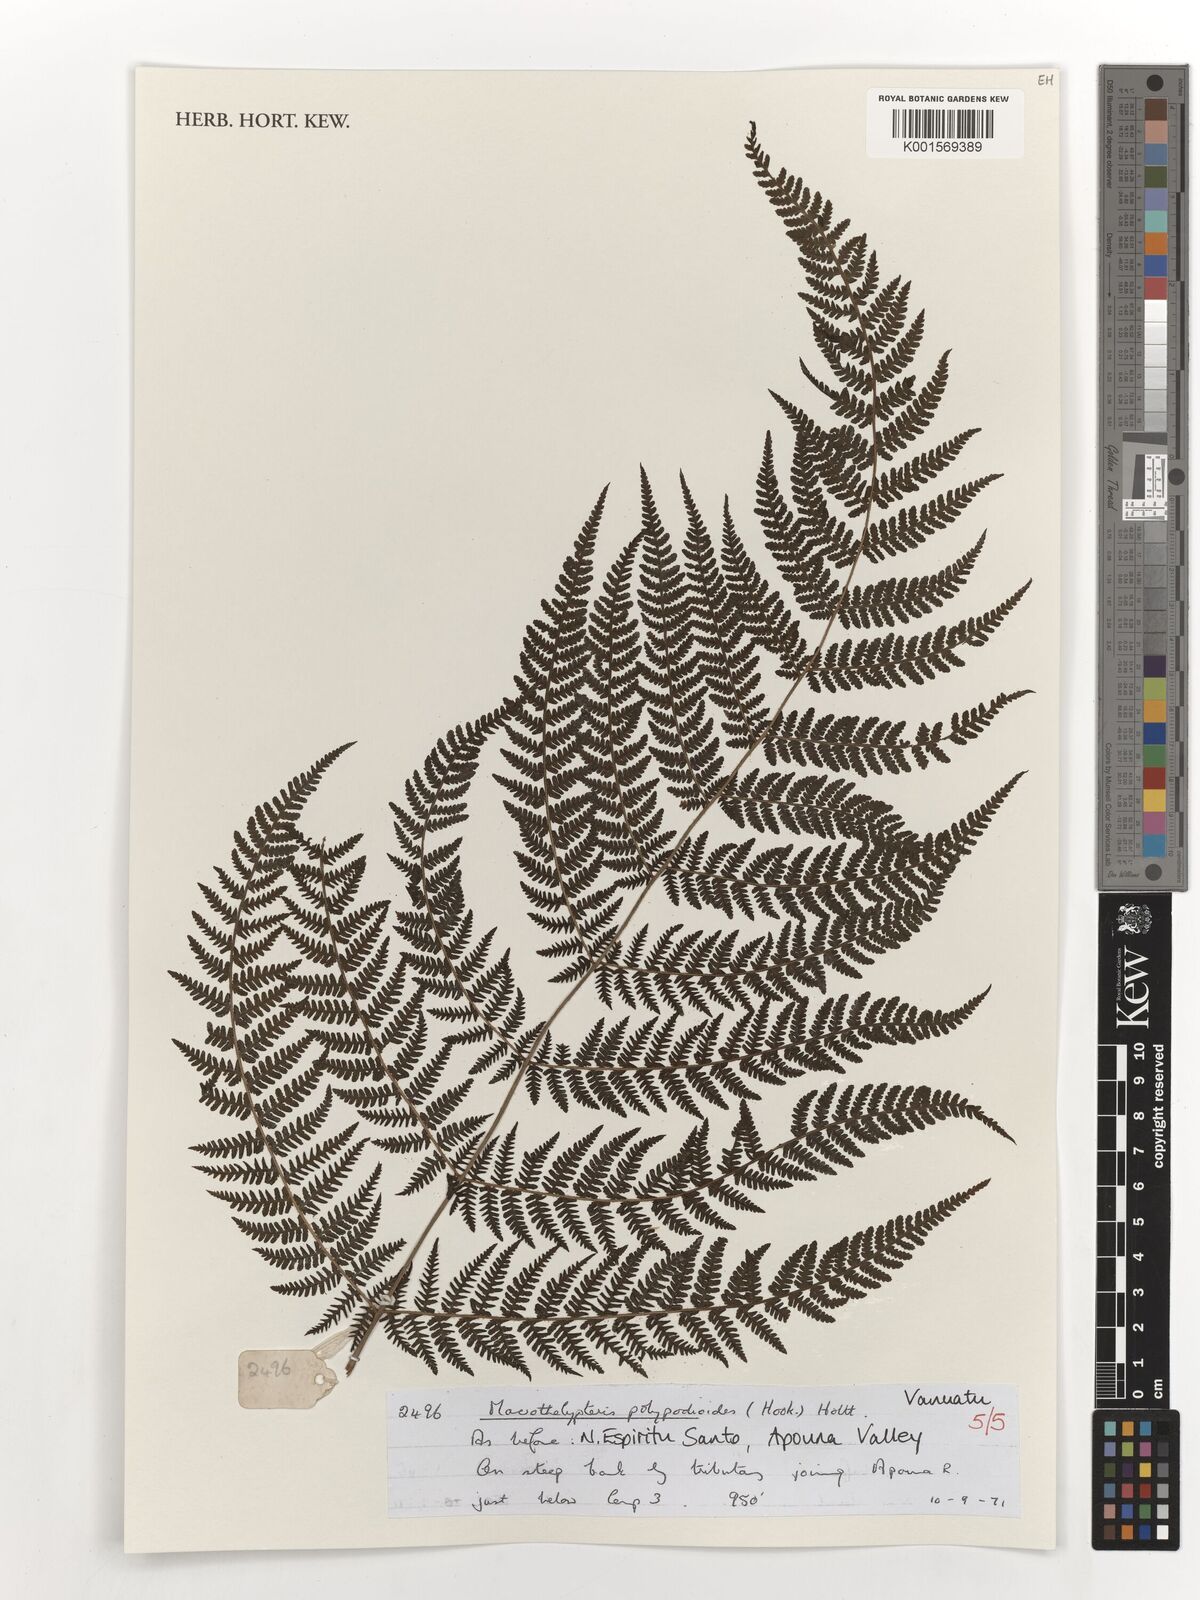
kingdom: Plantae
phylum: Tracheophyta
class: Polypodiopsida
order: Polypodiales
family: Thelypteridaceae
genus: Macrothelypteris
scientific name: Macrothelypteris polypodioides
